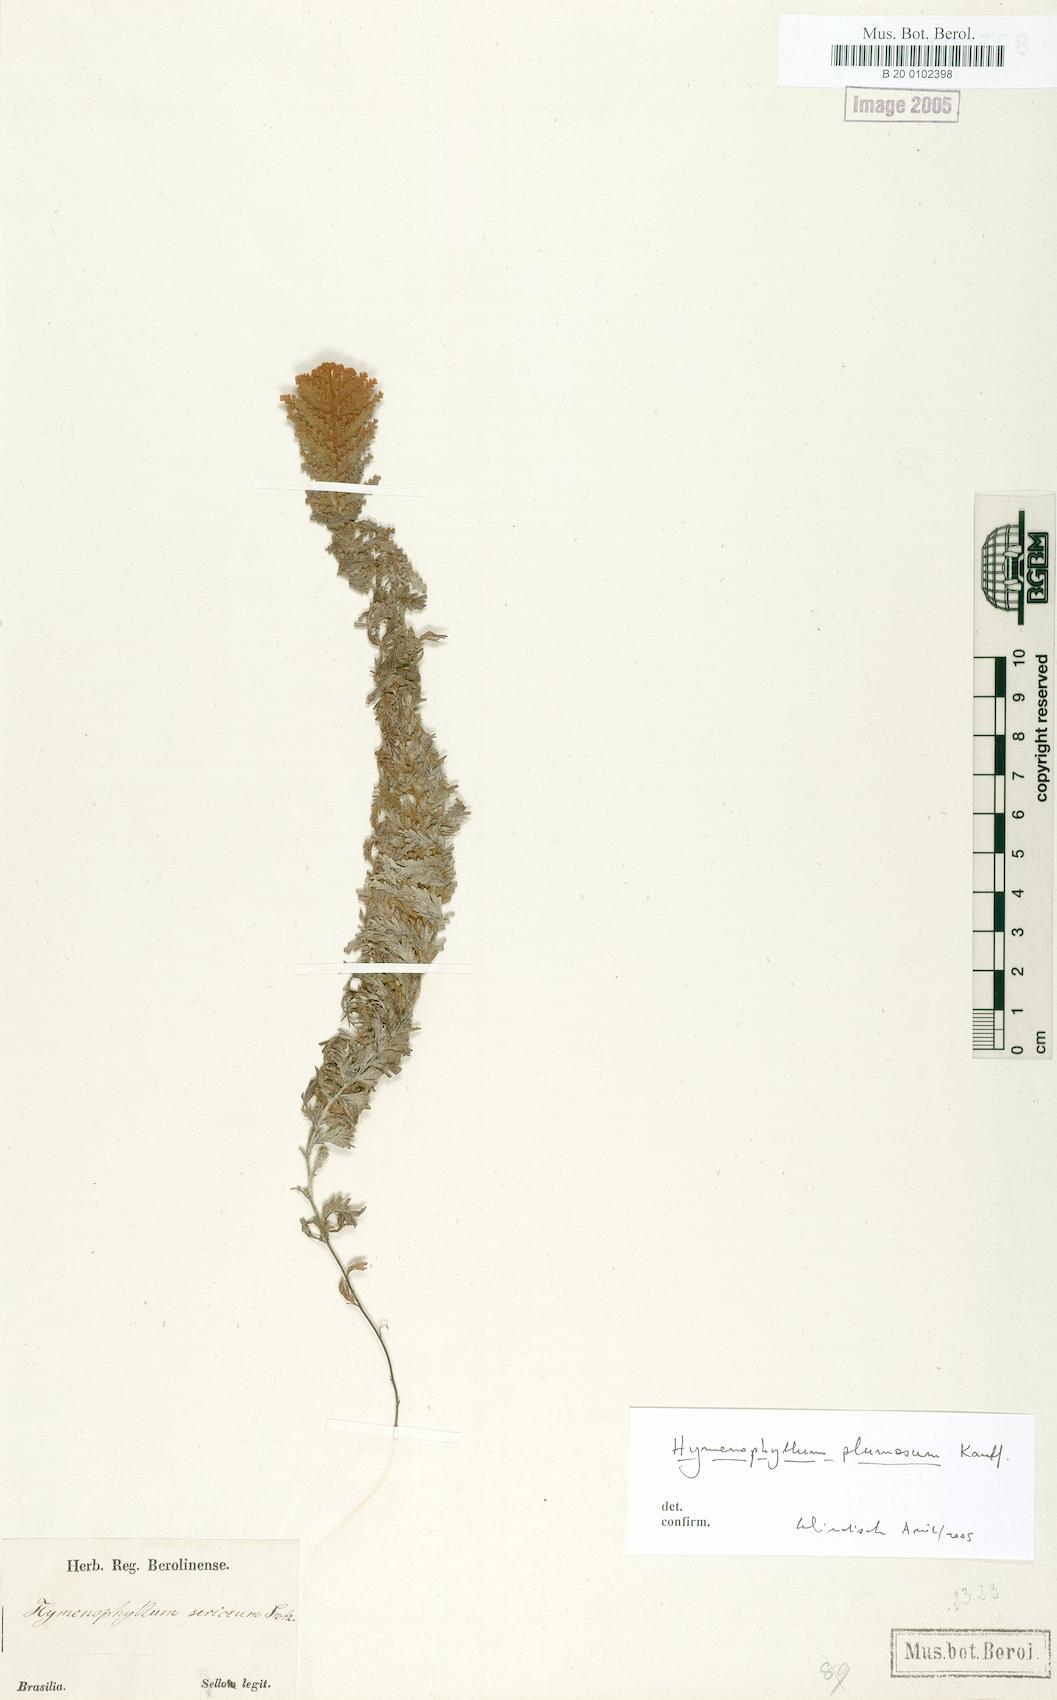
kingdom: Plantae
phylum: Tracheophyta
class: Polypodiopsida
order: Hymenophyllales
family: Hymenophyllaceae
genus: Hymenophyllum
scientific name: Hymenophyllum plumosum
